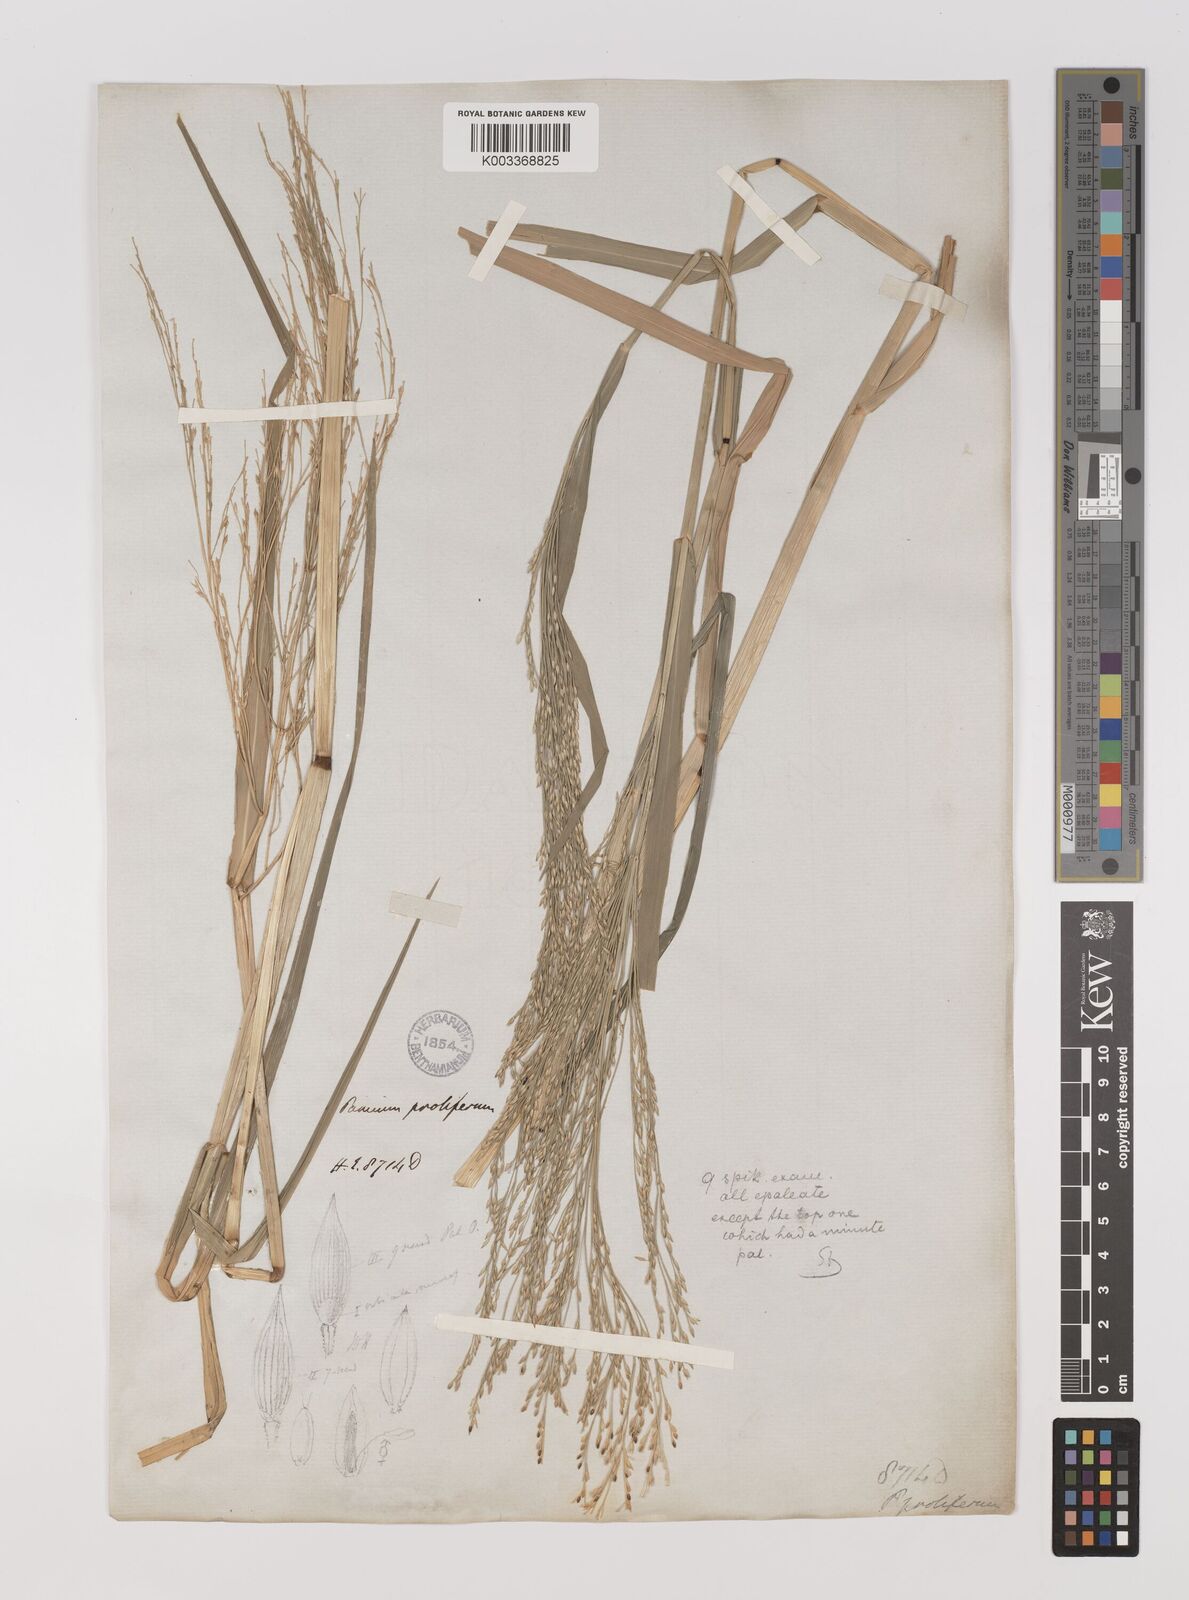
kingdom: Plantae
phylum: Tracheophyta
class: Liliopsida
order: Poales
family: Poaceae
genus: Louisiella
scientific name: Louisiella paludosa
